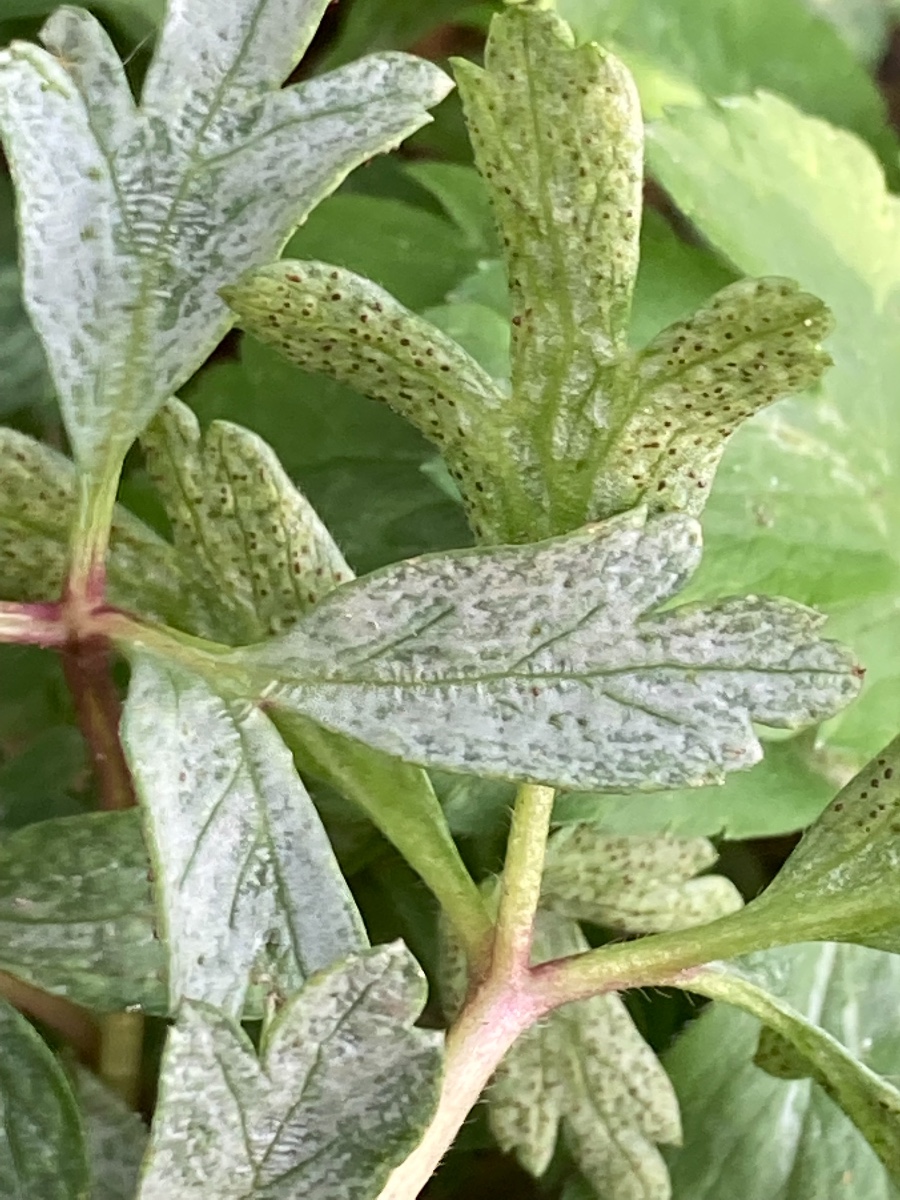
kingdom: Fungi
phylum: Basidiomycota
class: Pucciniomycetes
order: Pucciniales
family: Tranzscheliaceae
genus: Tranzschelia
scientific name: Tranzschelia anemones
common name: anemone-knæksporerust
